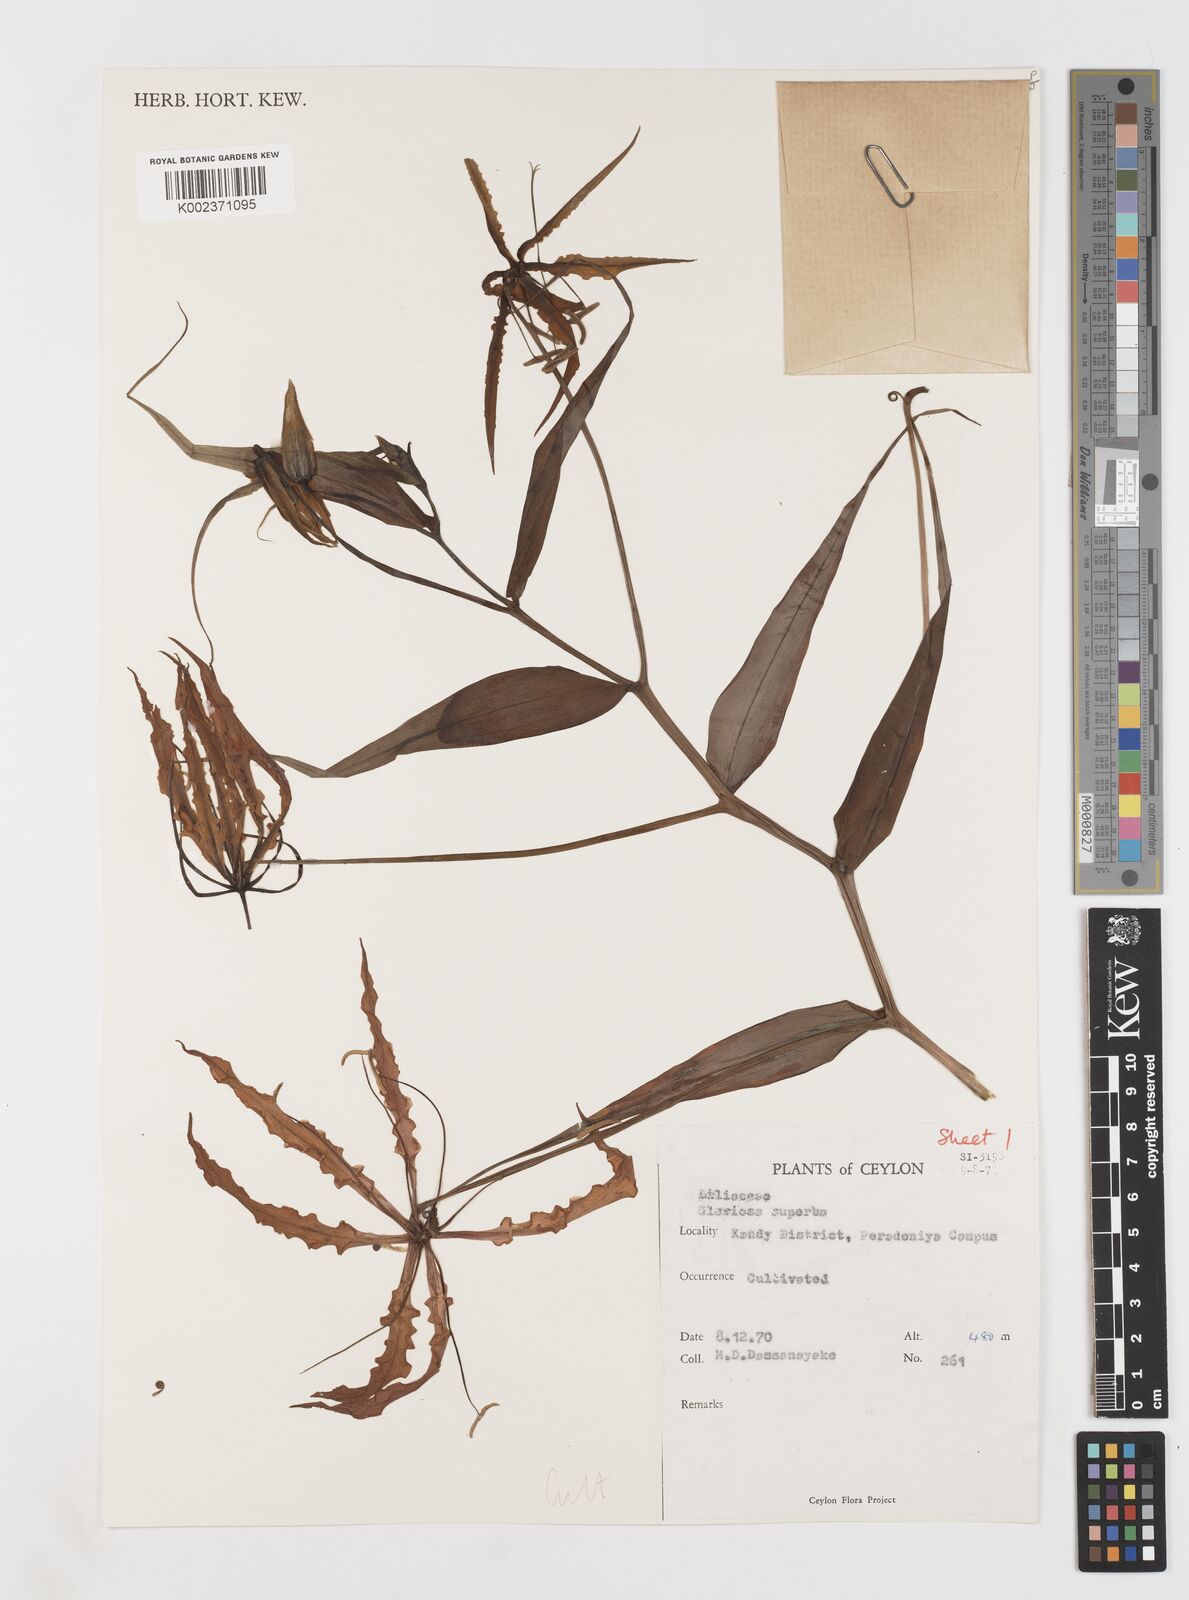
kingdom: Plantae
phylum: Tracheophyta
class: Liliopsida
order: Liliales
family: Colchicaceae
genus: Gloriosa
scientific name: Gloriosa superba
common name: Flame lily
